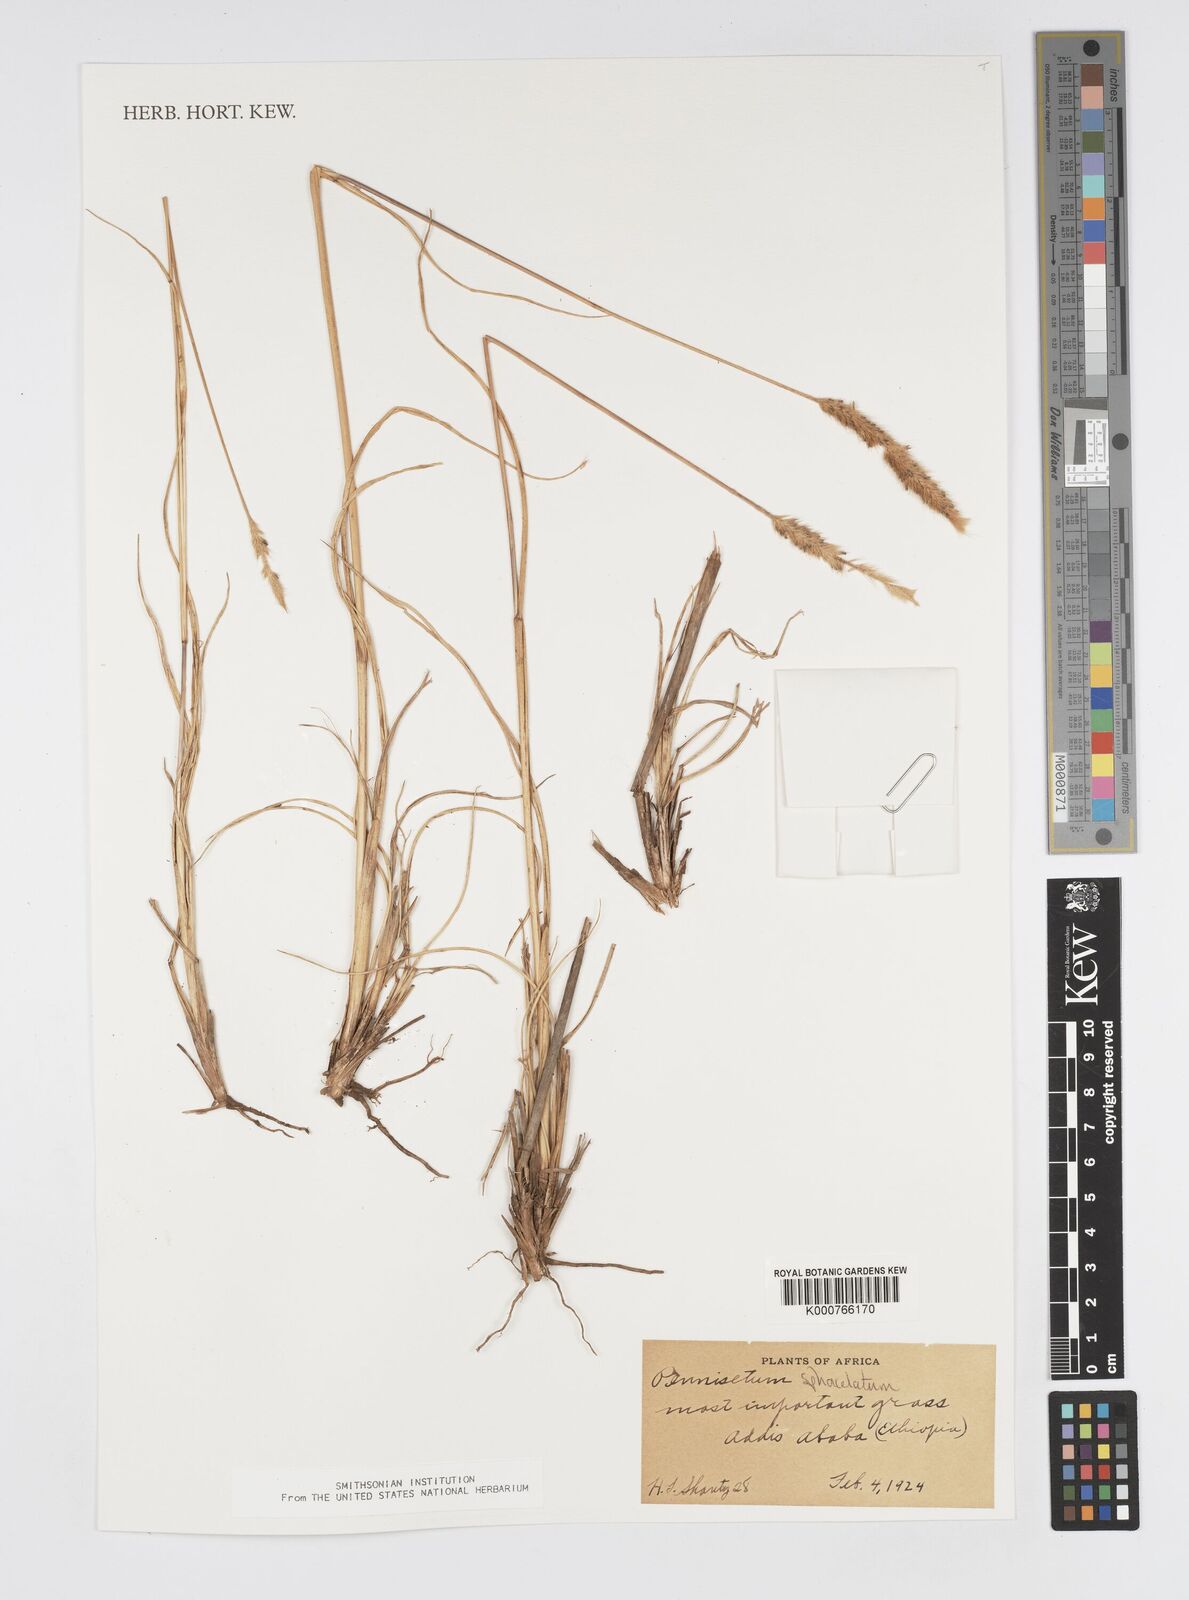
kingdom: Plantae
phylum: Tracheophyta
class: Liliopsida
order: Poales
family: Poaceae
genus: Cenchrus
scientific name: Cenchrus sphacelatus
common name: Bulgras
